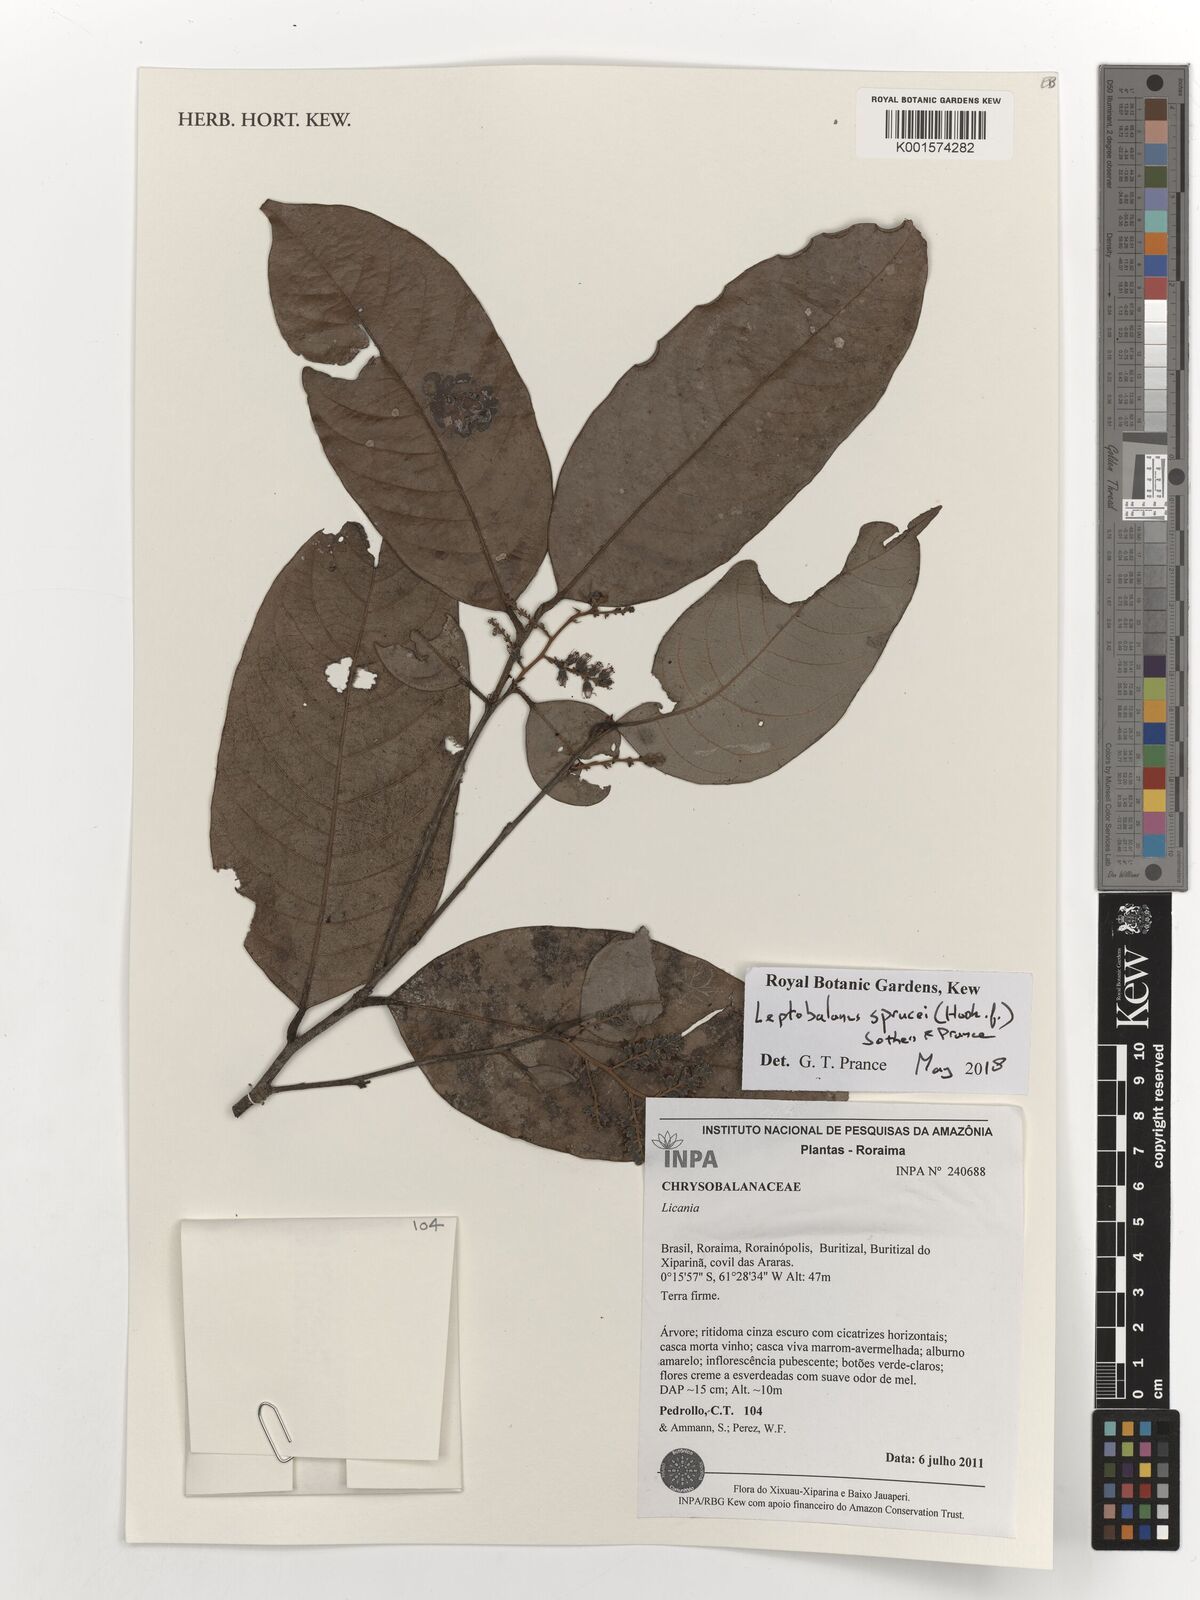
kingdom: Plantae
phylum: Tracheophyta
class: Magnoliopsida
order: Malpighiales
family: Chrysobalanaceae
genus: Leptobalanus
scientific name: Leptobalanus sprucei
